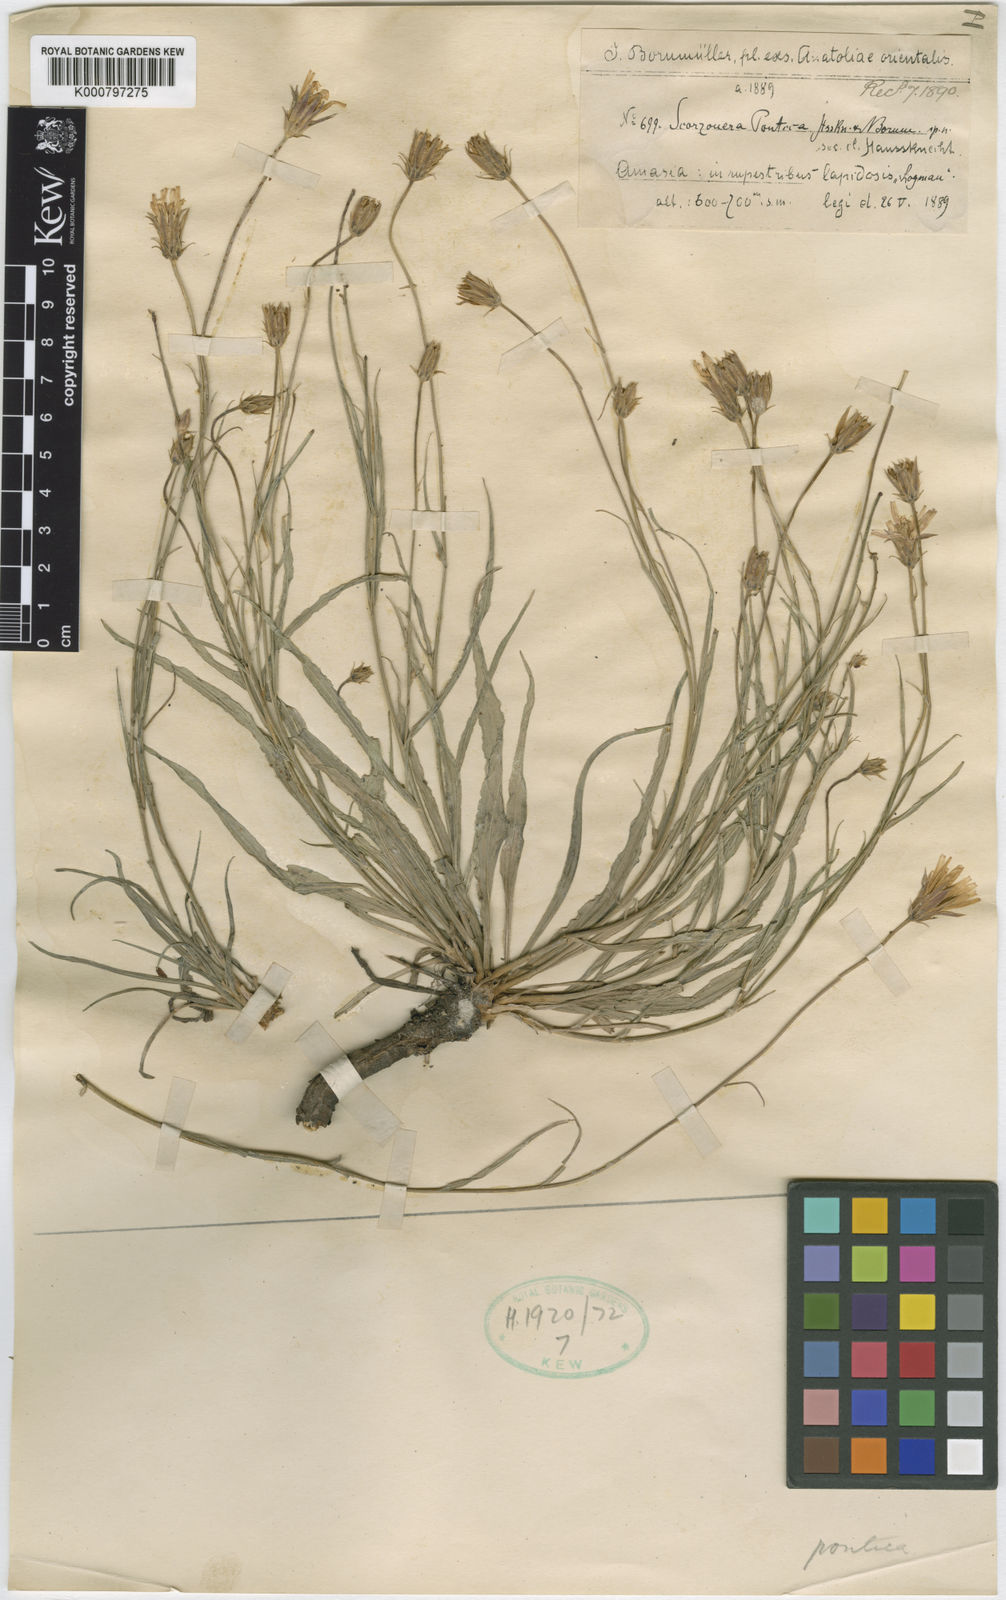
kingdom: Plantae
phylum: Tracheophyta
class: Magnoliopsida
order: Asterales
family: Asteraceae
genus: Ramaliella
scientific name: Ramaliella amasiana
